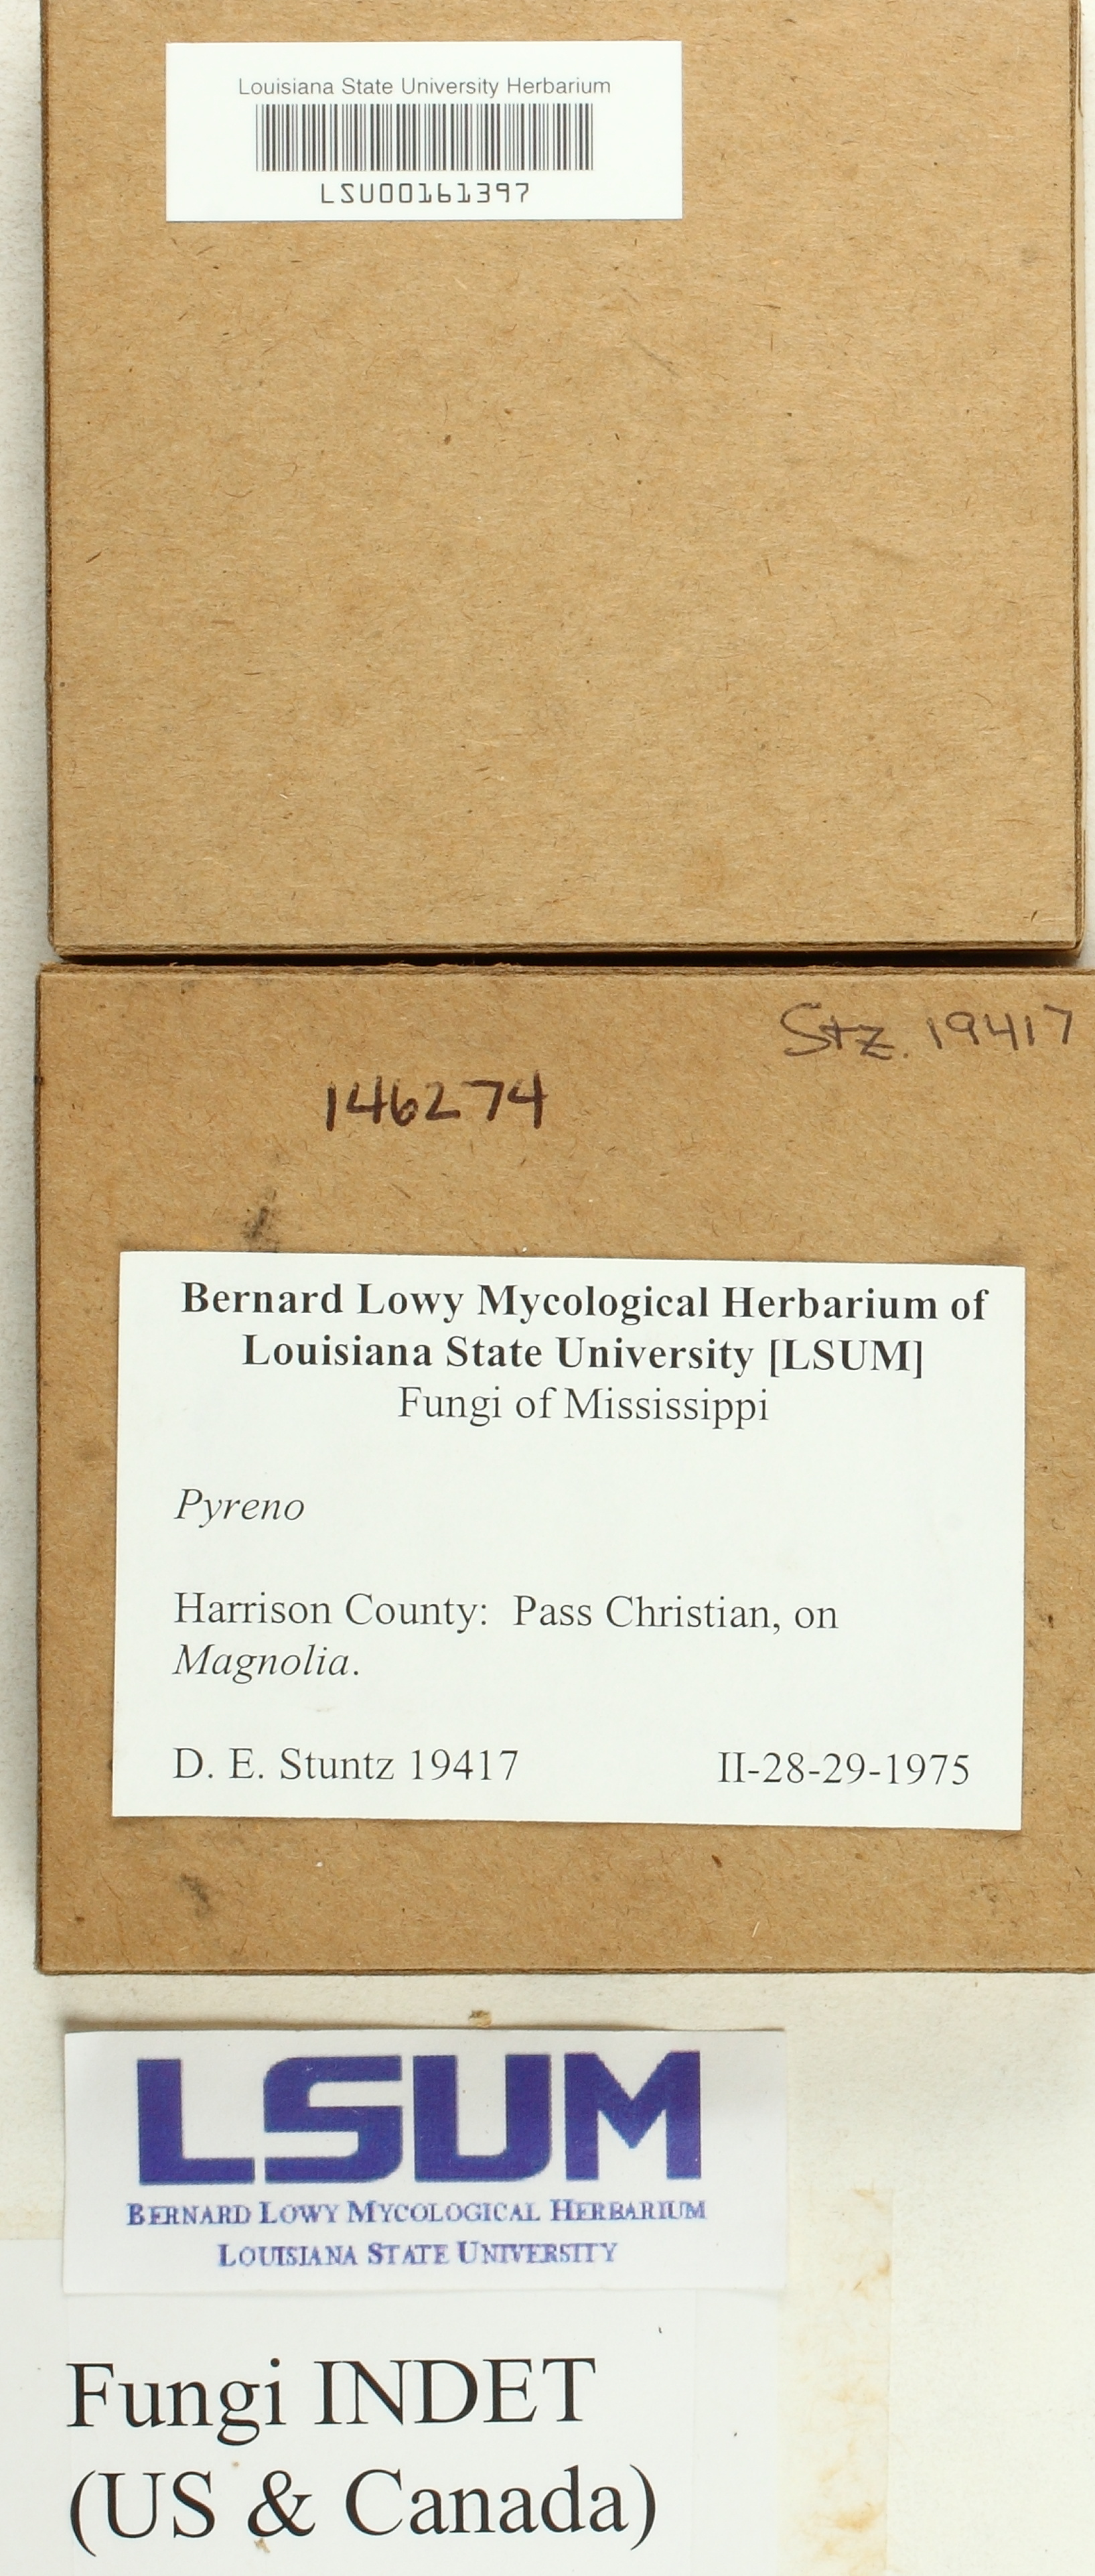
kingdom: Fungi
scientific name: Fungi
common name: Fungi
